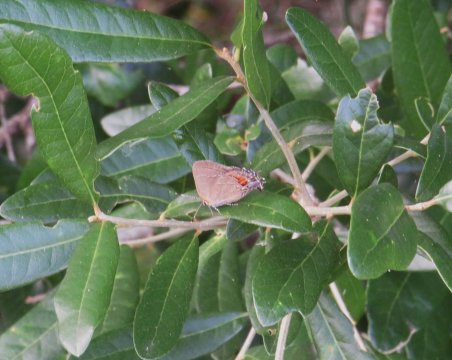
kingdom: Animalia
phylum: Arthropoda
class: Insecta
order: Lepidoptera
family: Lycaenidae
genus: Fixsenia
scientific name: Fixsenia favonius
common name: Oak Hairstreak
